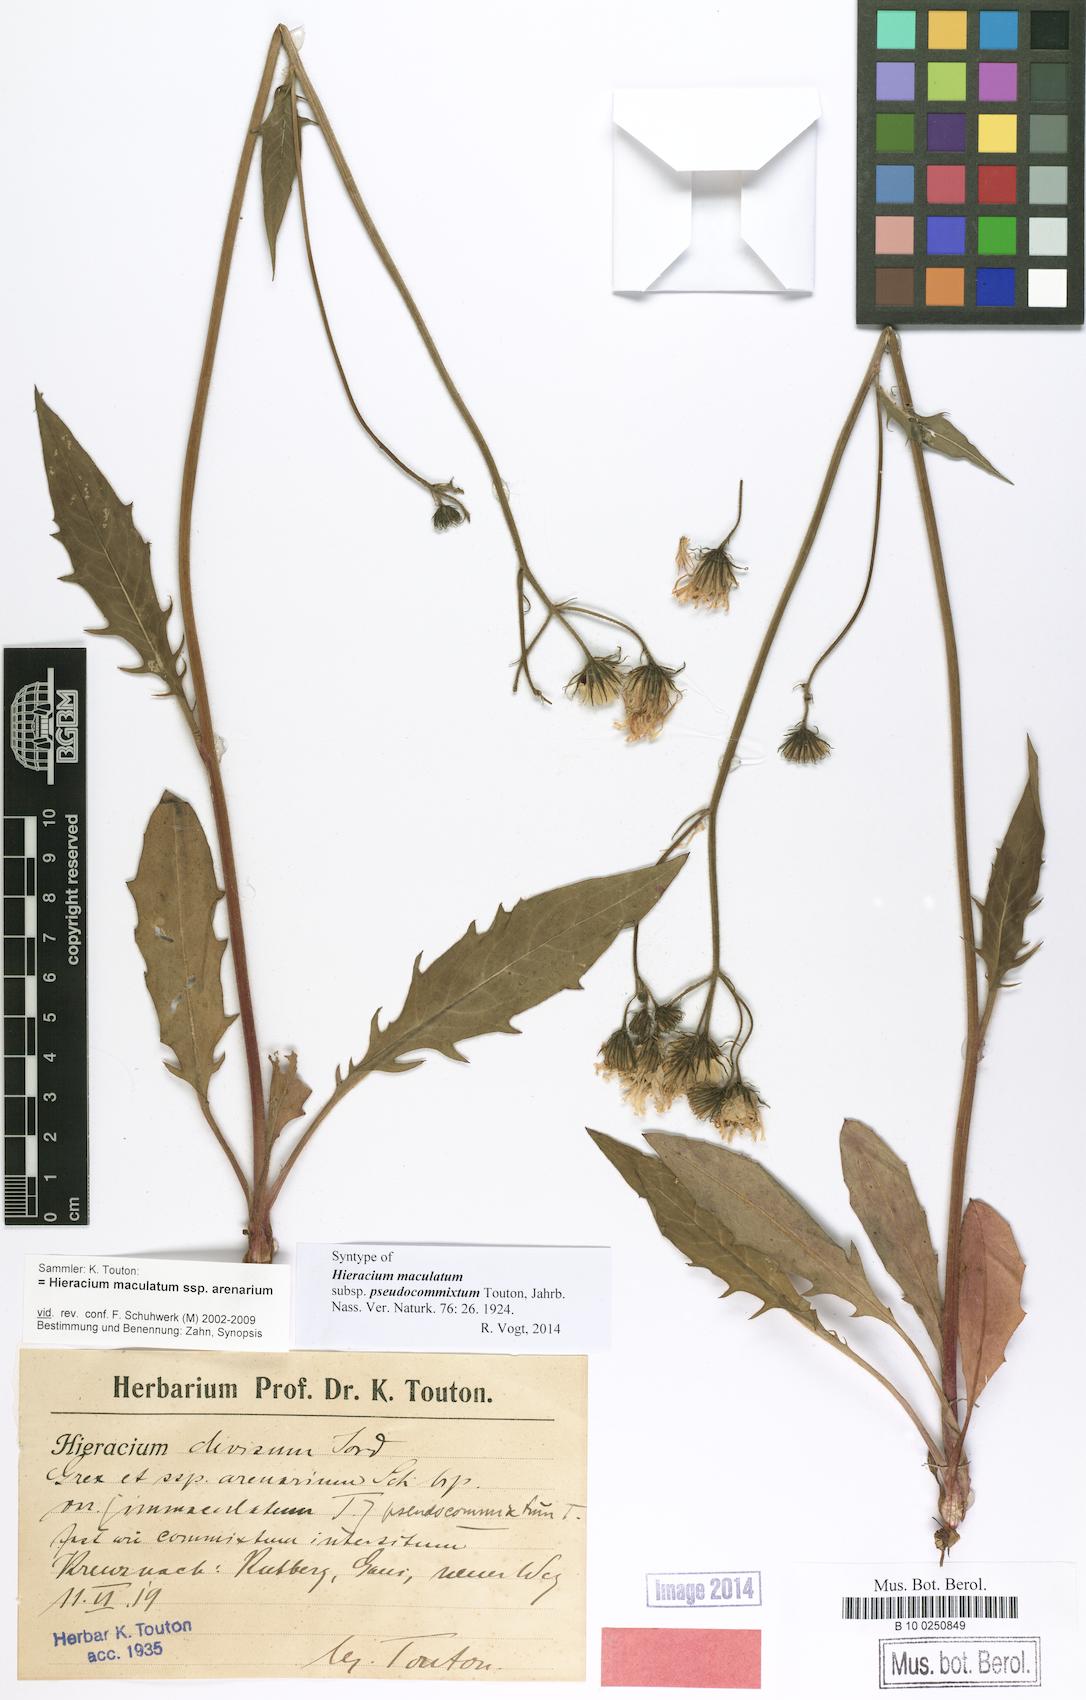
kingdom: Plantae
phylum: Tracheophyta
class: Magnoliopsida
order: Asterales
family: Asteraceae
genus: Hieracium
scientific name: Hieracium maculatum
